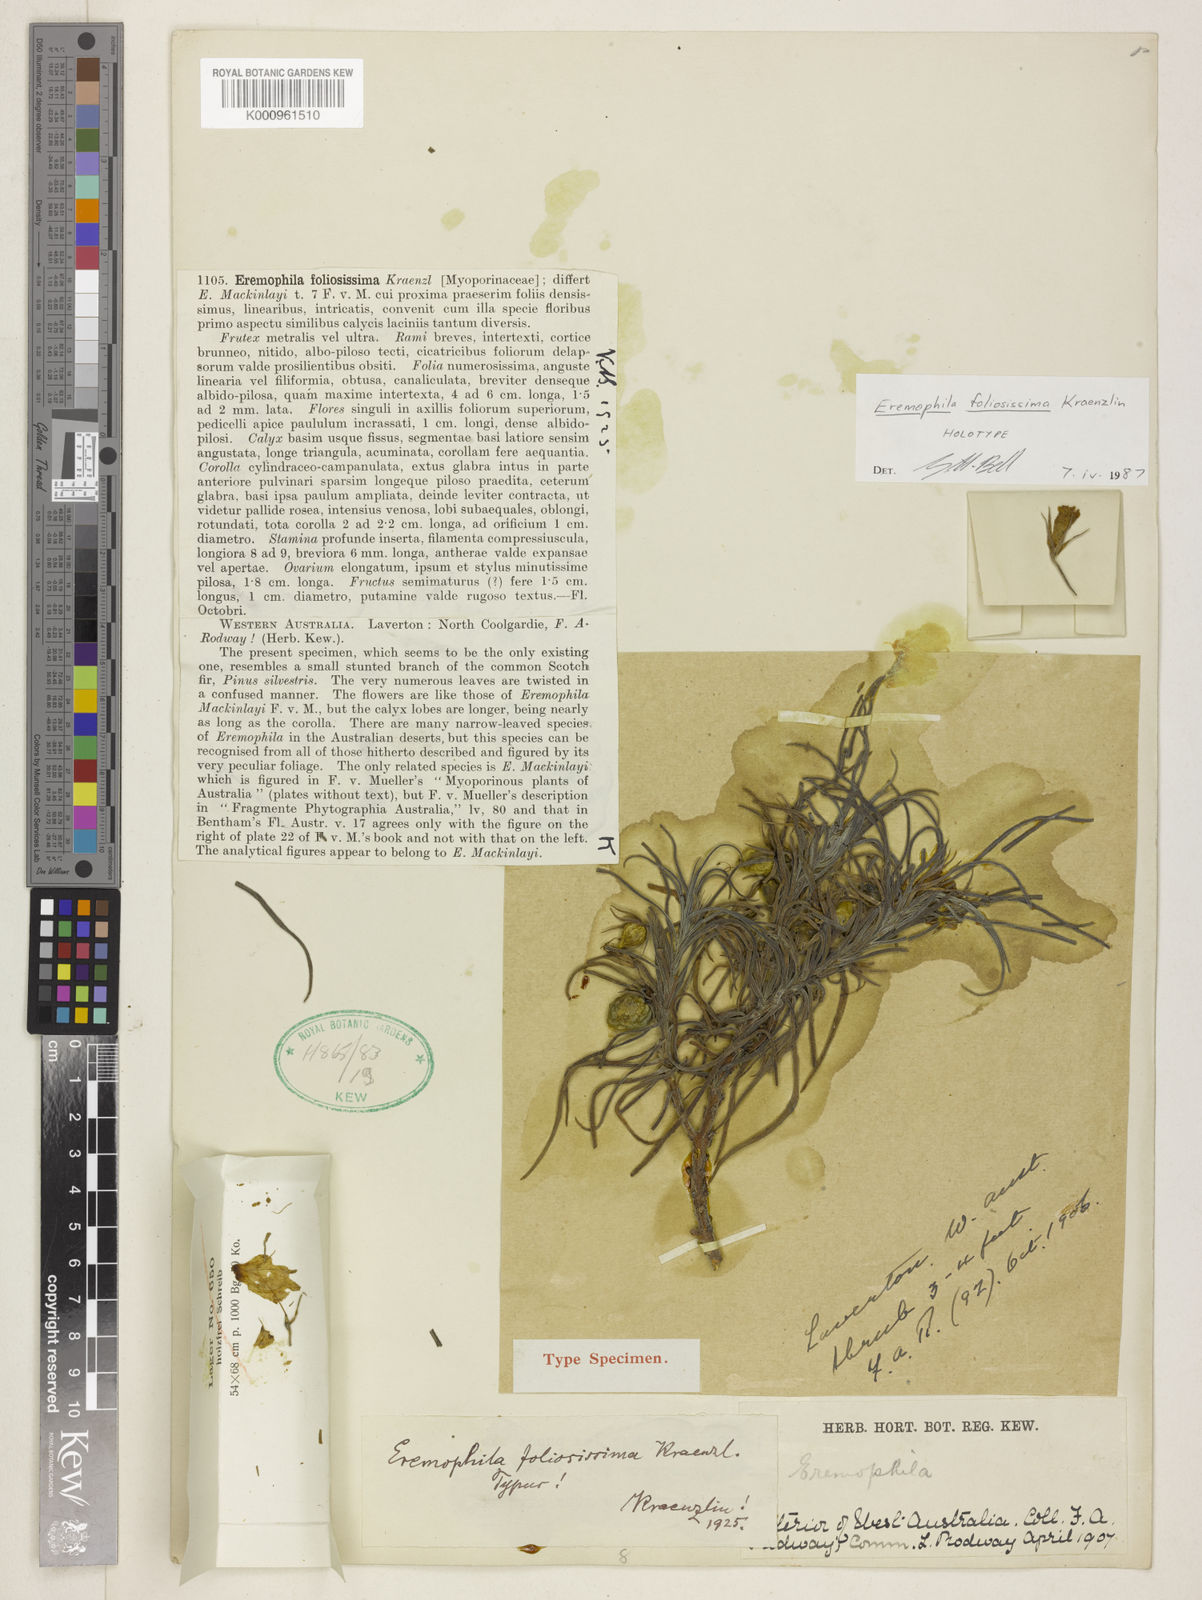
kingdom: Plantae
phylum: Tracheophyta
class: Magnoliopsida
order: Lamiales
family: Scrophulariaceae
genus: Eremophila
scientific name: Eremophila foliosissima
